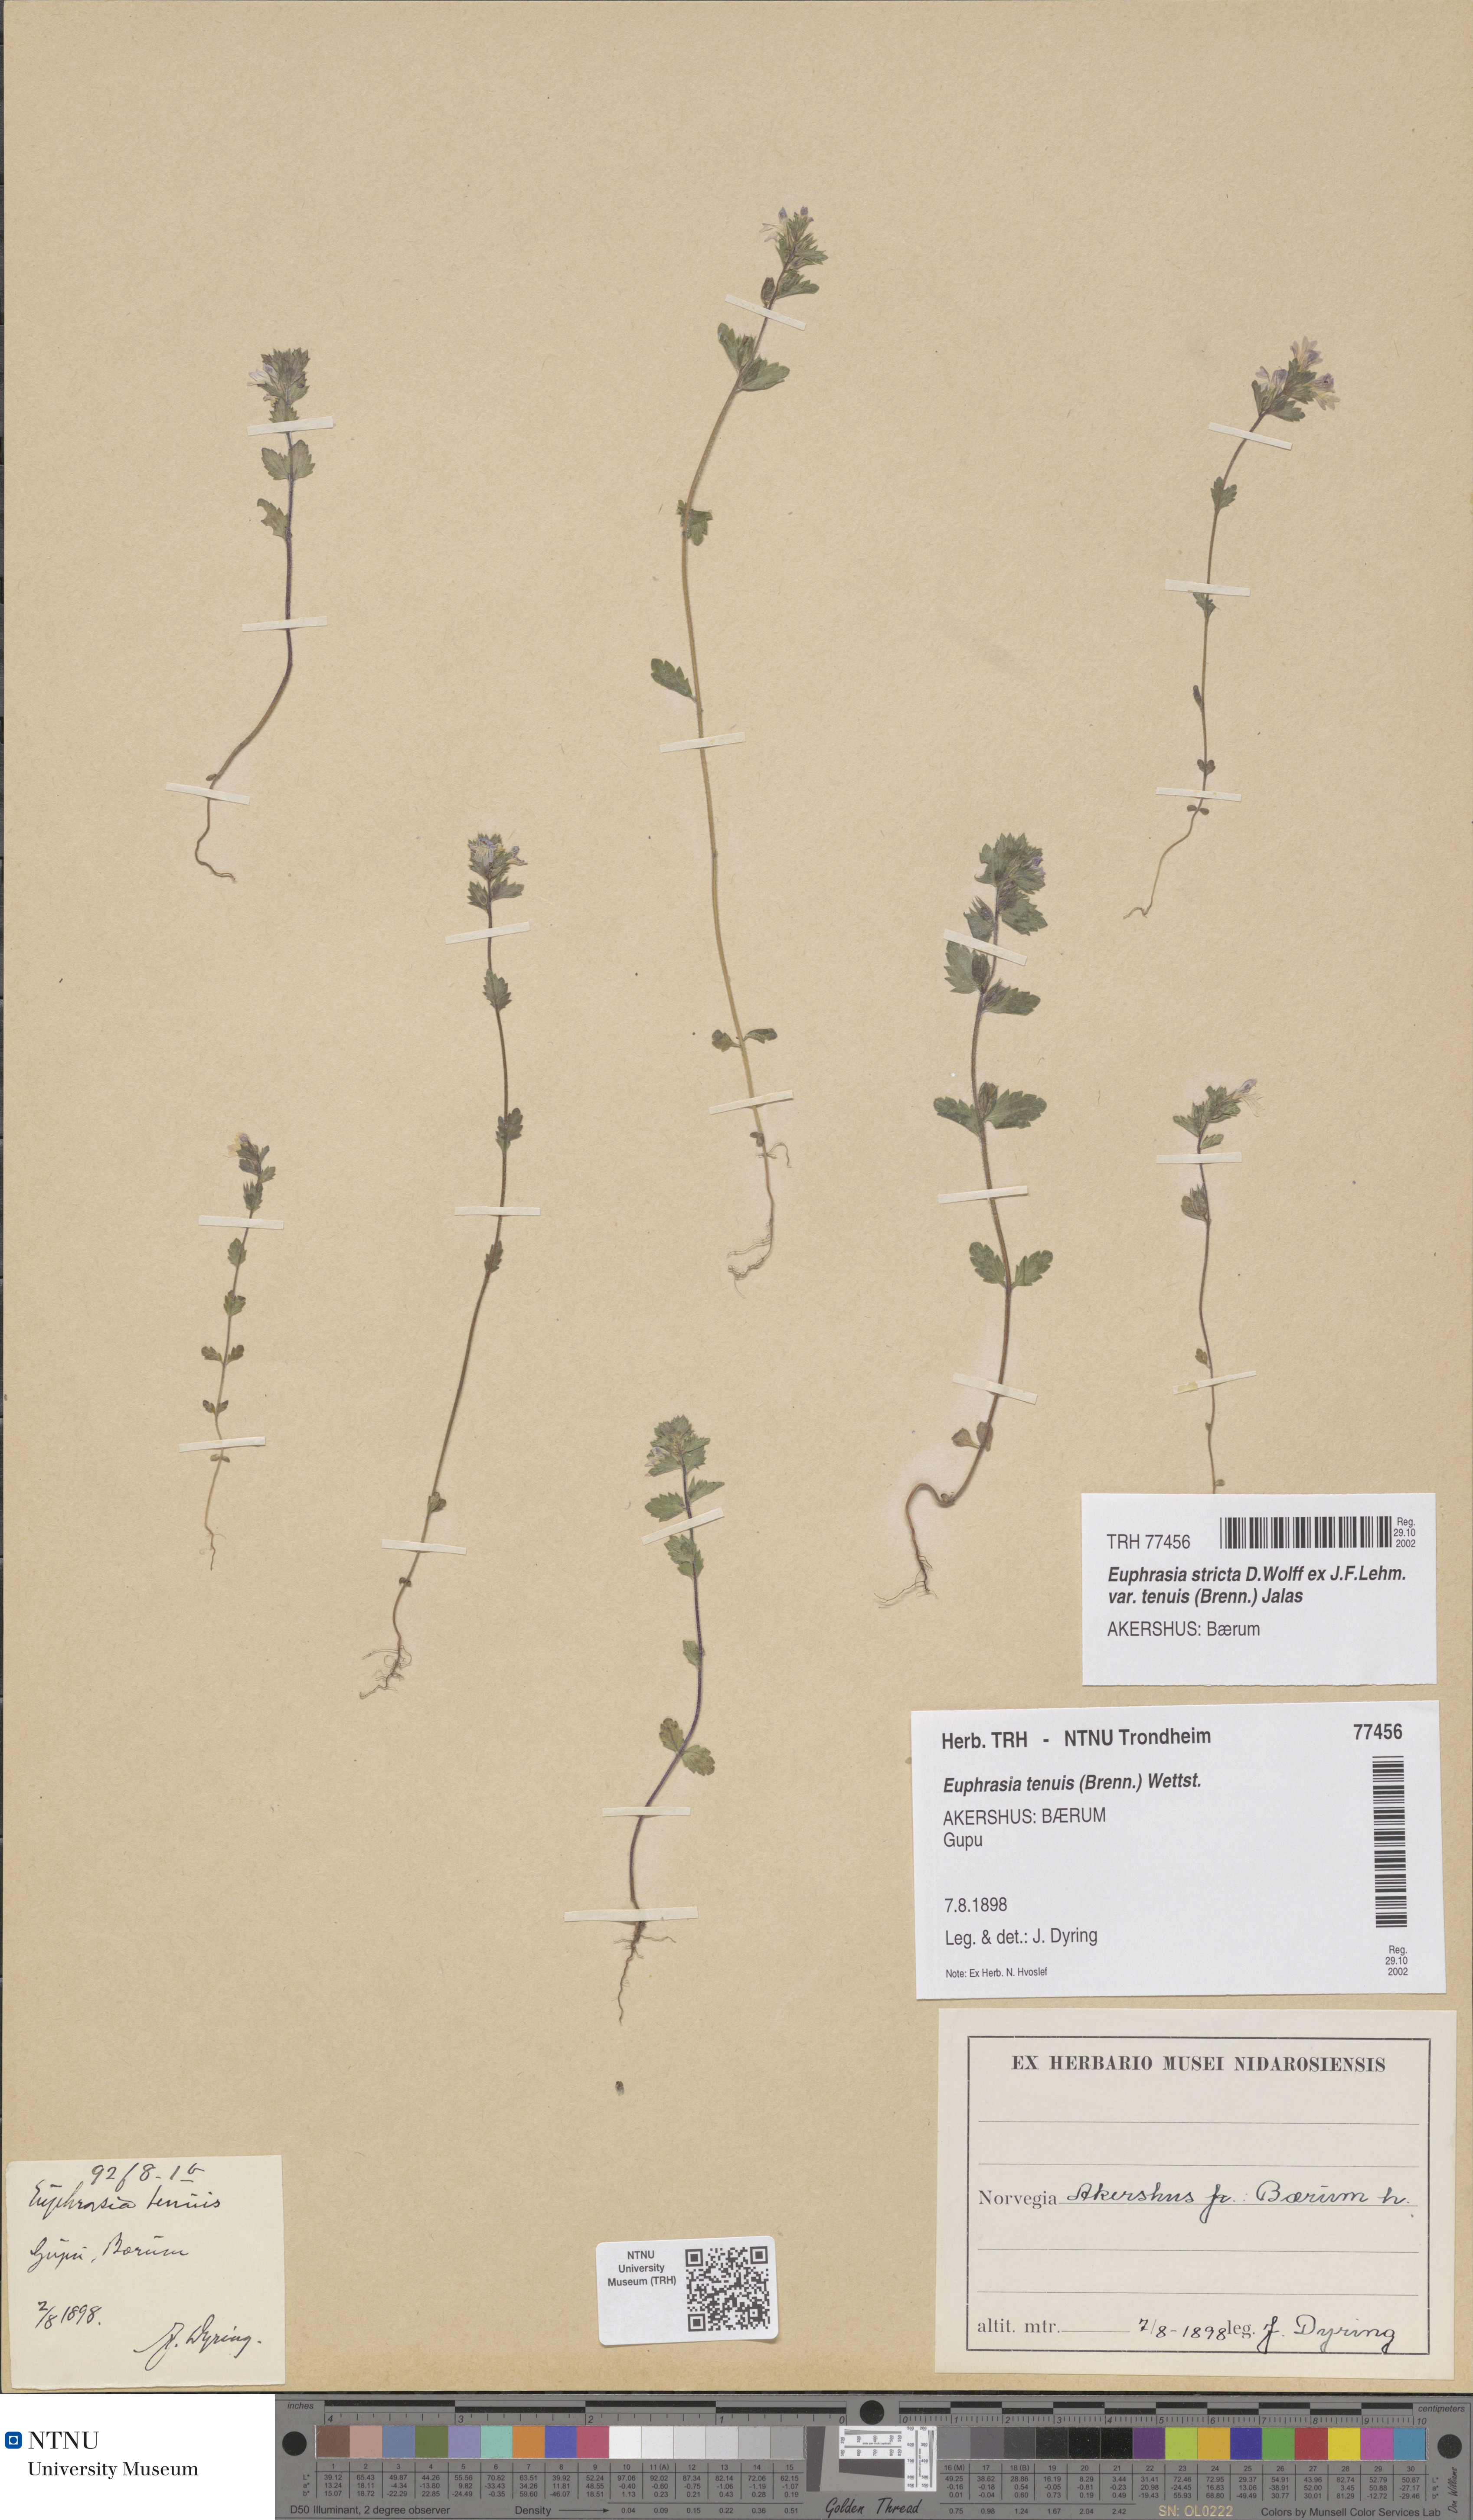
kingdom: Plantae
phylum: Tracheophyta
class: Magnoliopsida
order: Lamiales
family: Orobanchaceae
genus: Euphrasia
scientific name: Euphrasia vernalis
